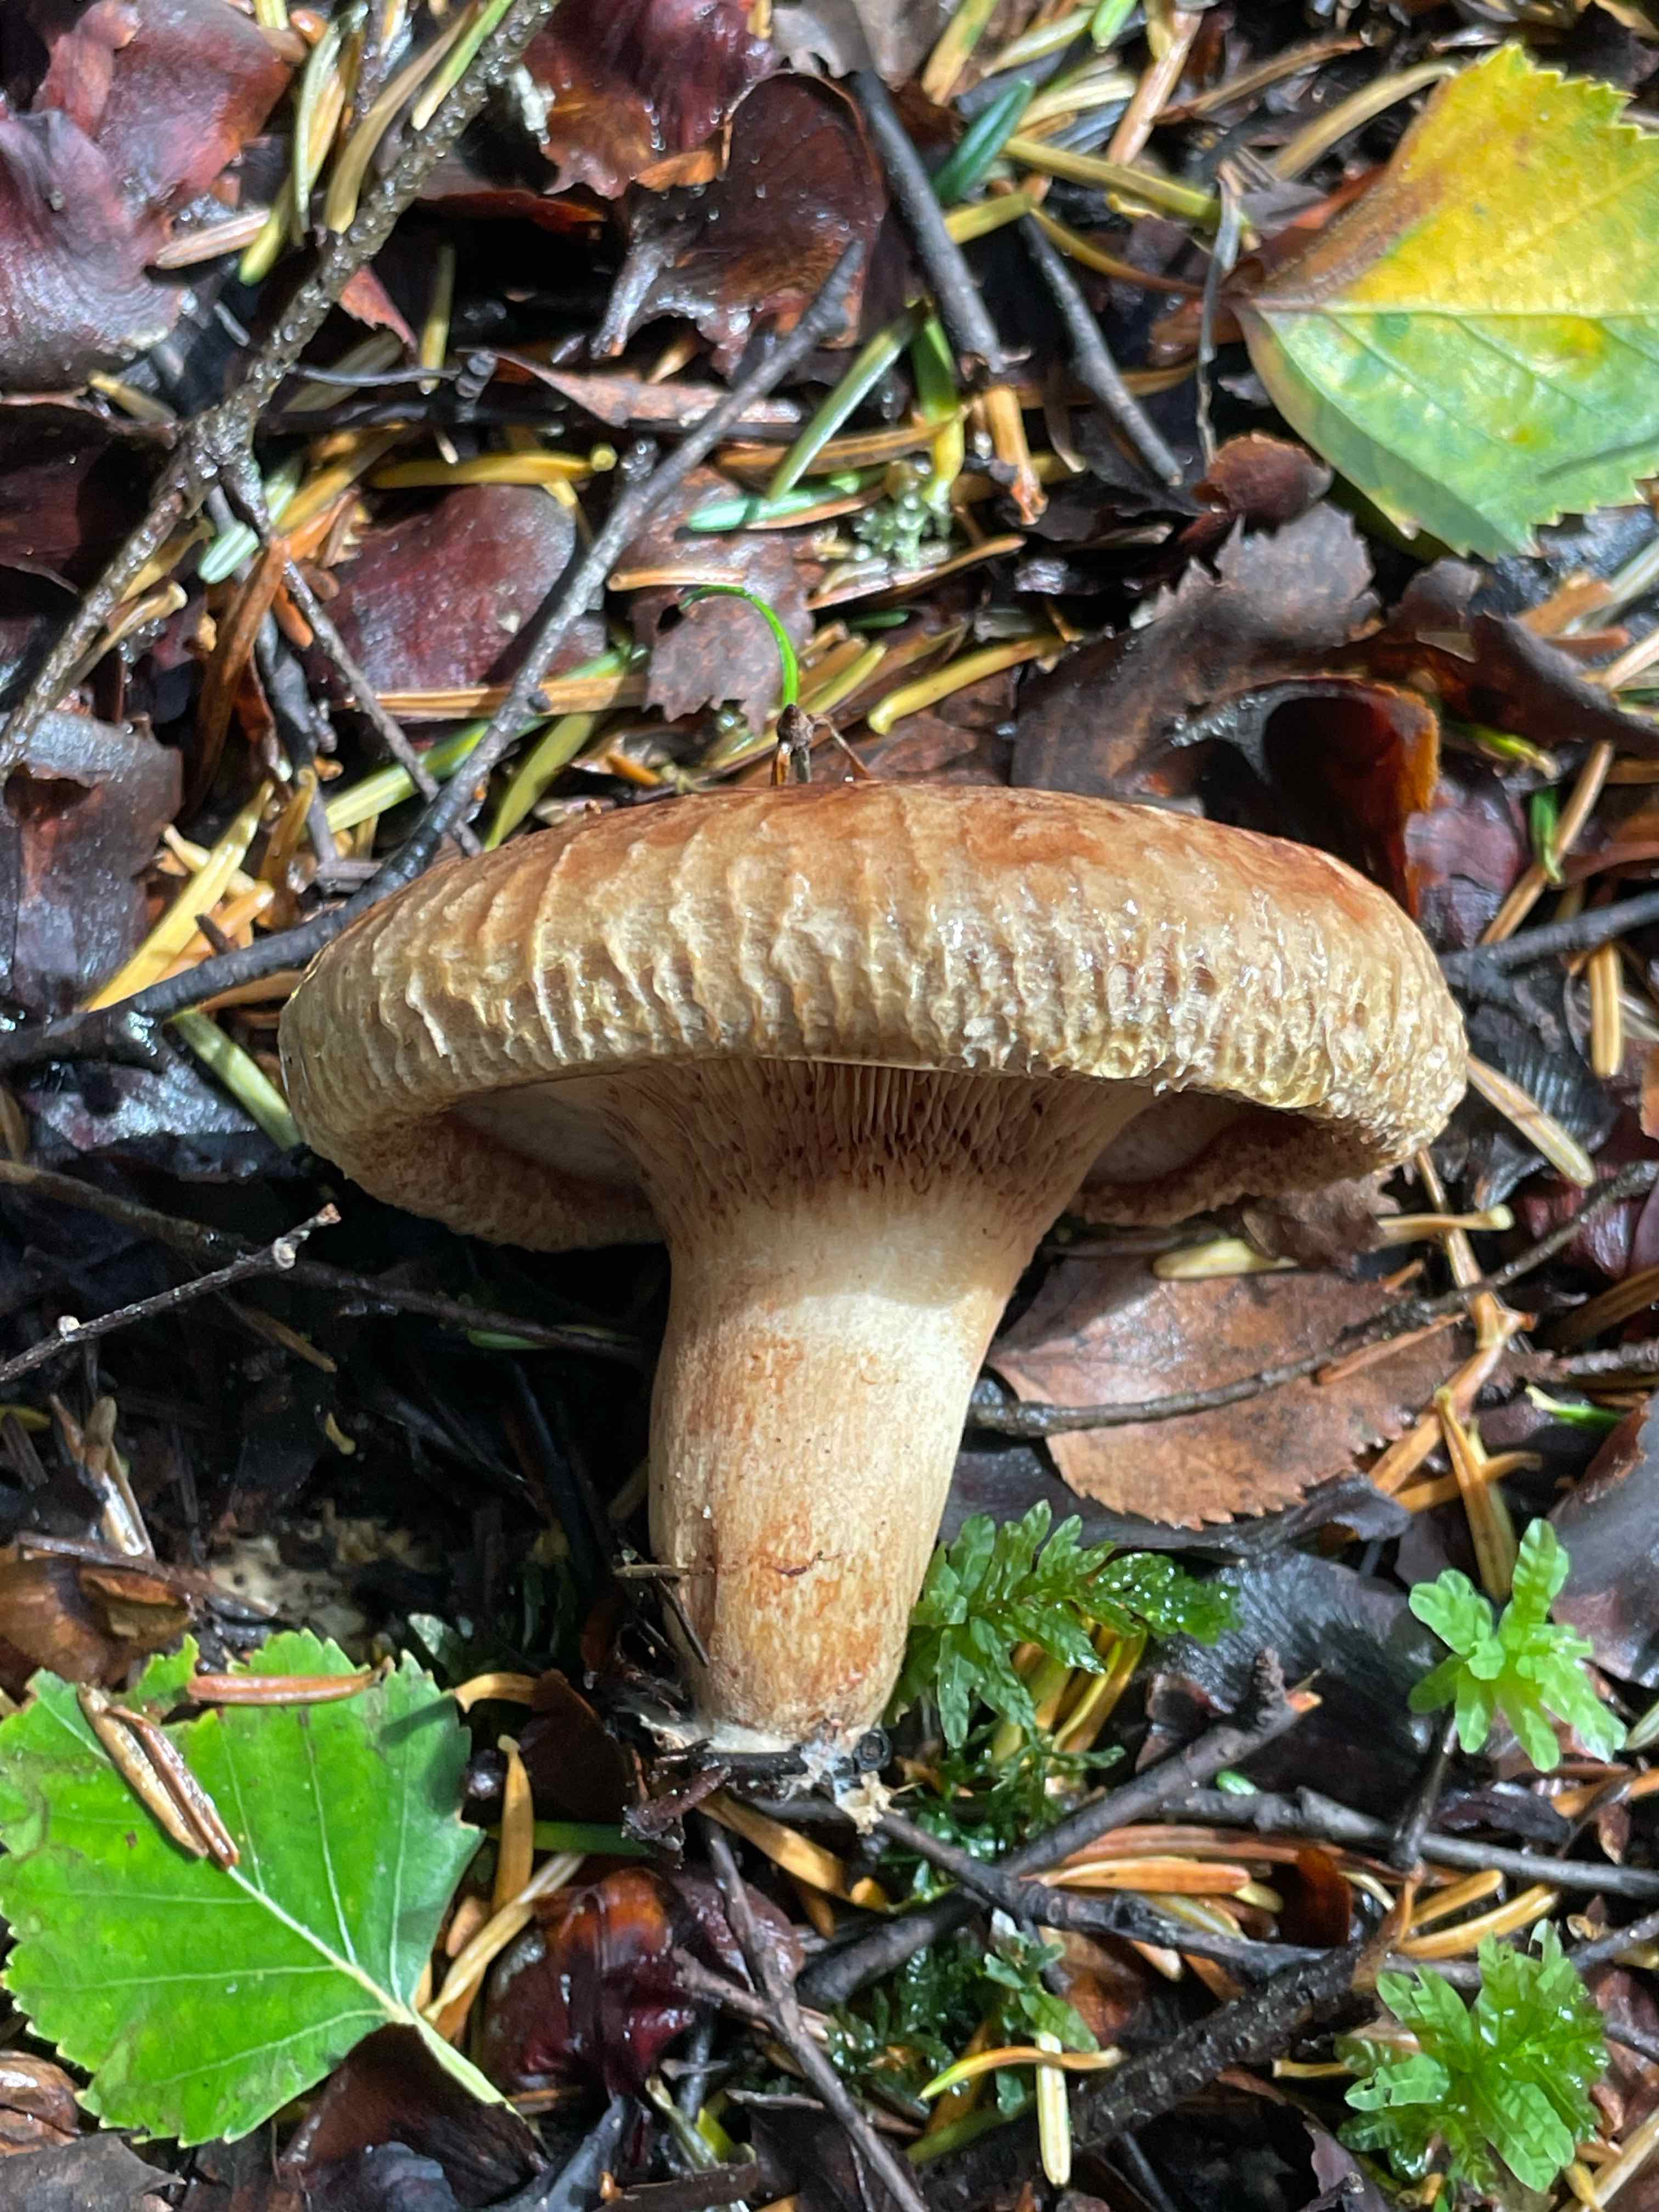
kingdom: Fungi
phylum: Basidiomycota
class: Agaricomycetes
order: Boletales
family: Paxillaceae
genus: Paxillus
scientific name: Paxillus involutus
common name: almindelig netbladhat
